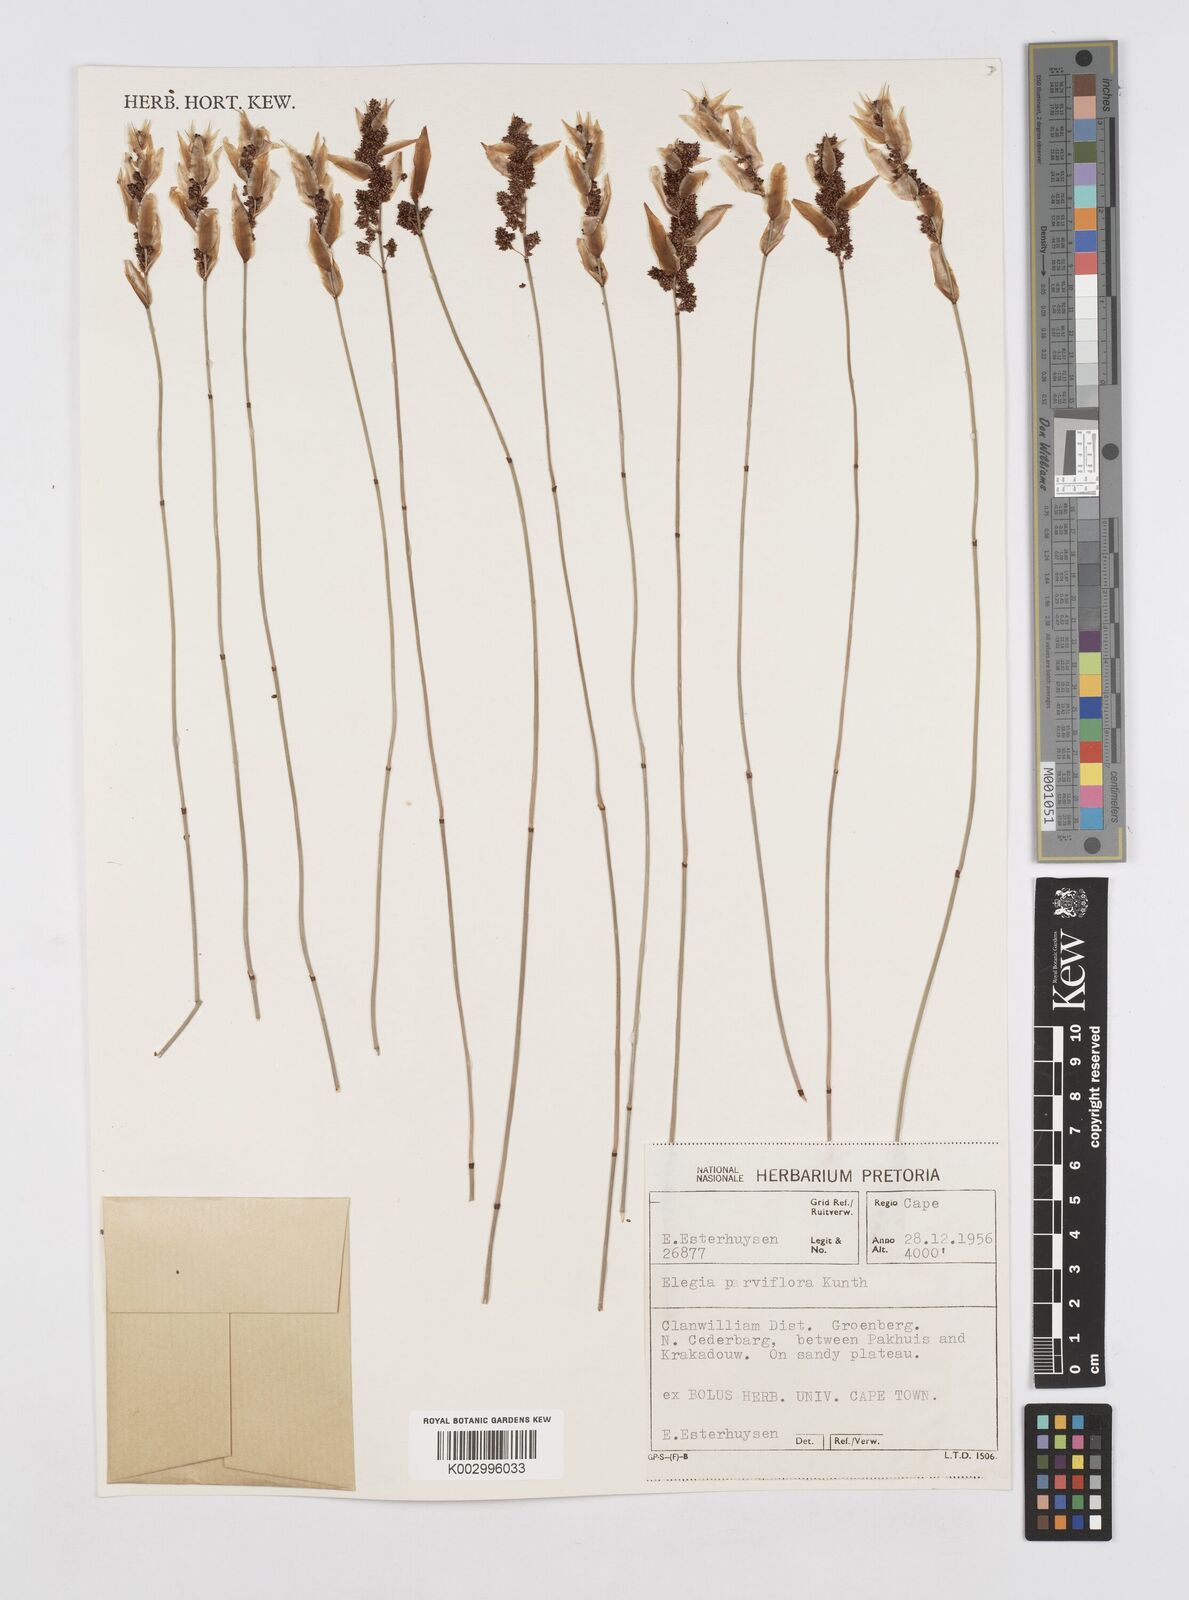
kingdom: Plantae
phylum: Tracheophyta
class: Liliopsida
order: Poales
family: Restionaceae
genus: Cannomois
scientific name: Cannomois parviflora
